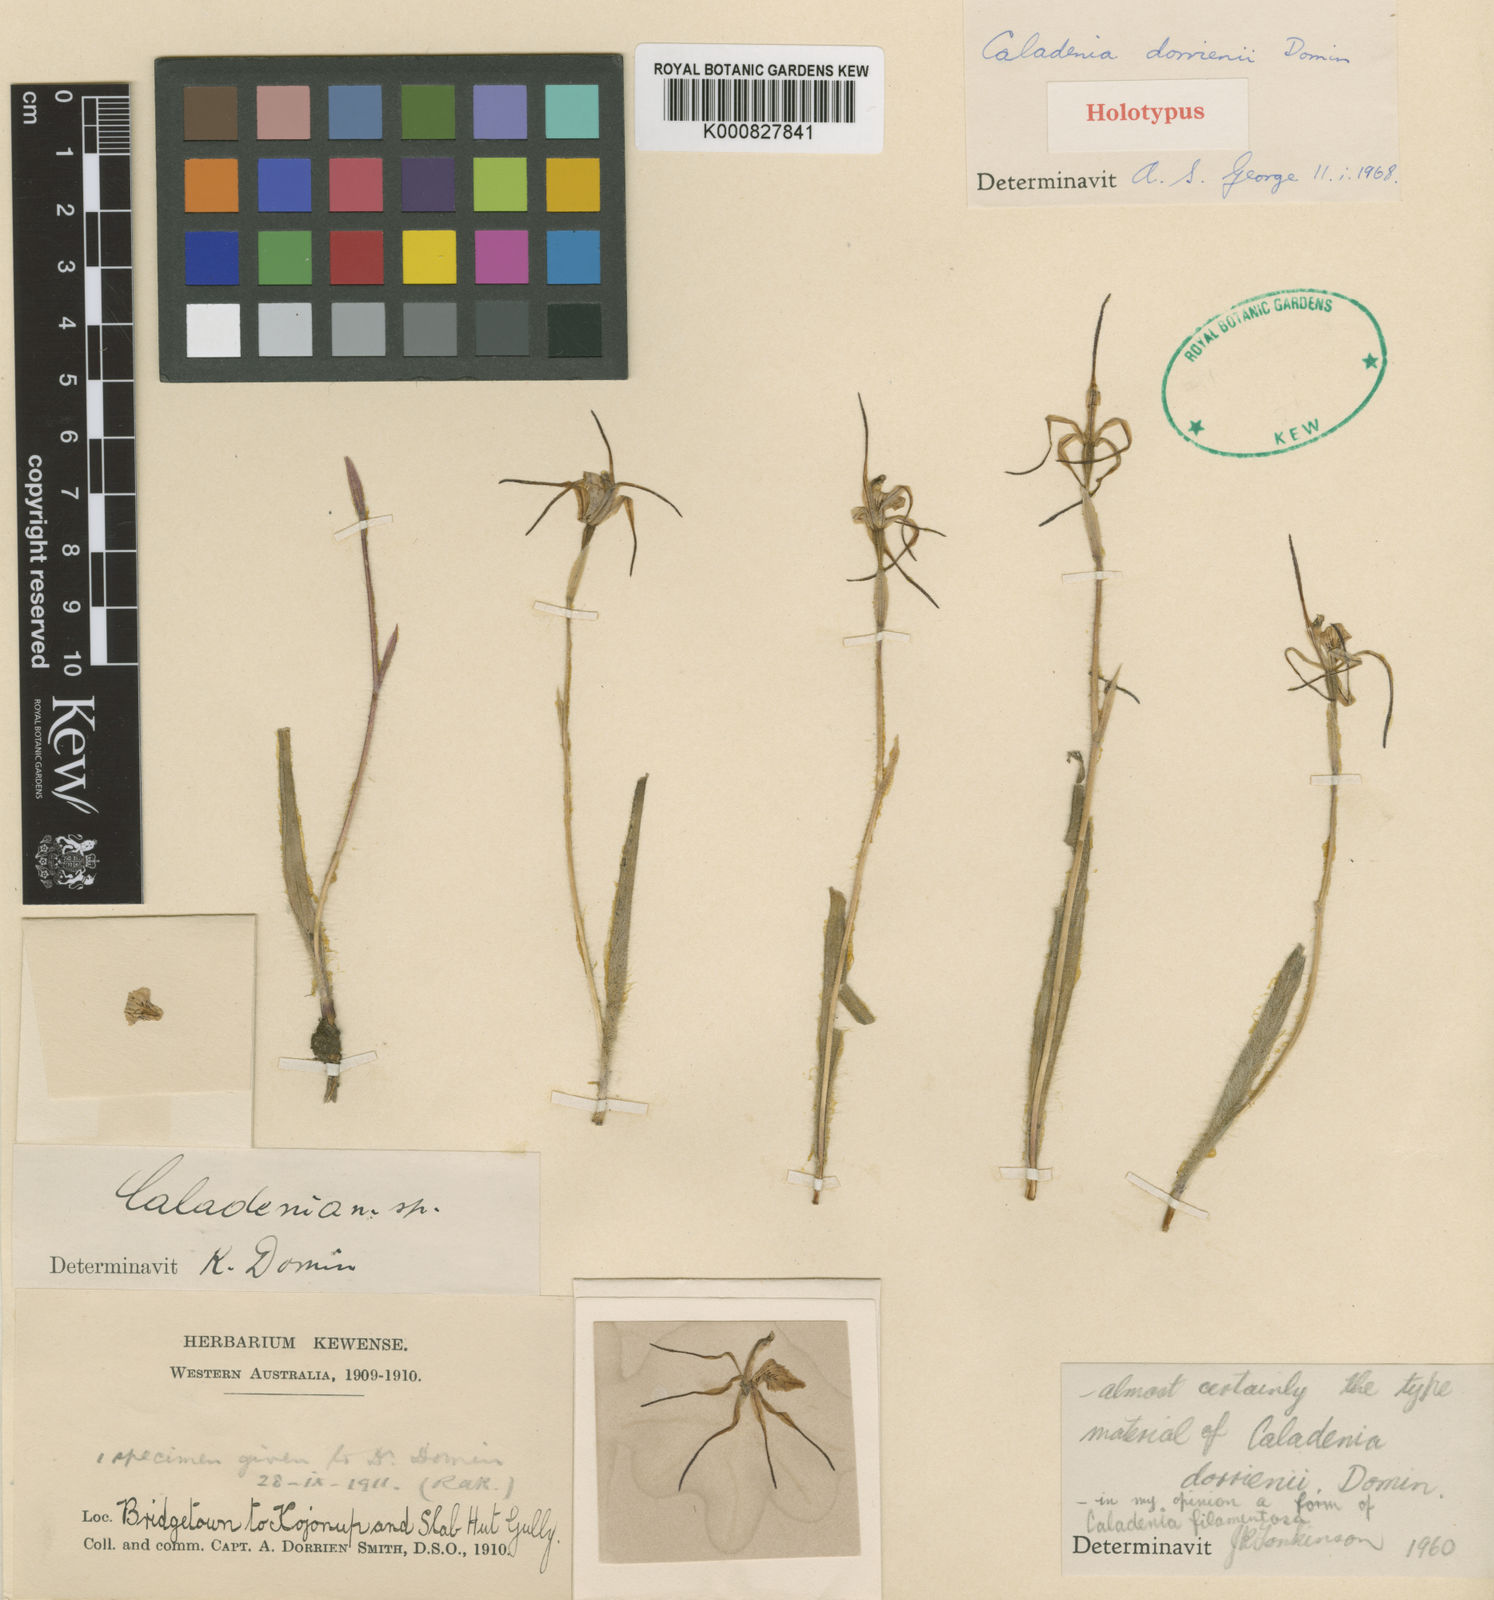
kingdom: Plantae
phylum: Tracheophyta
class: Liliopsida
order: Asparagales
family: Orchidaceae
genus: Caladenia
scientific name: Caladenia dorrienii
